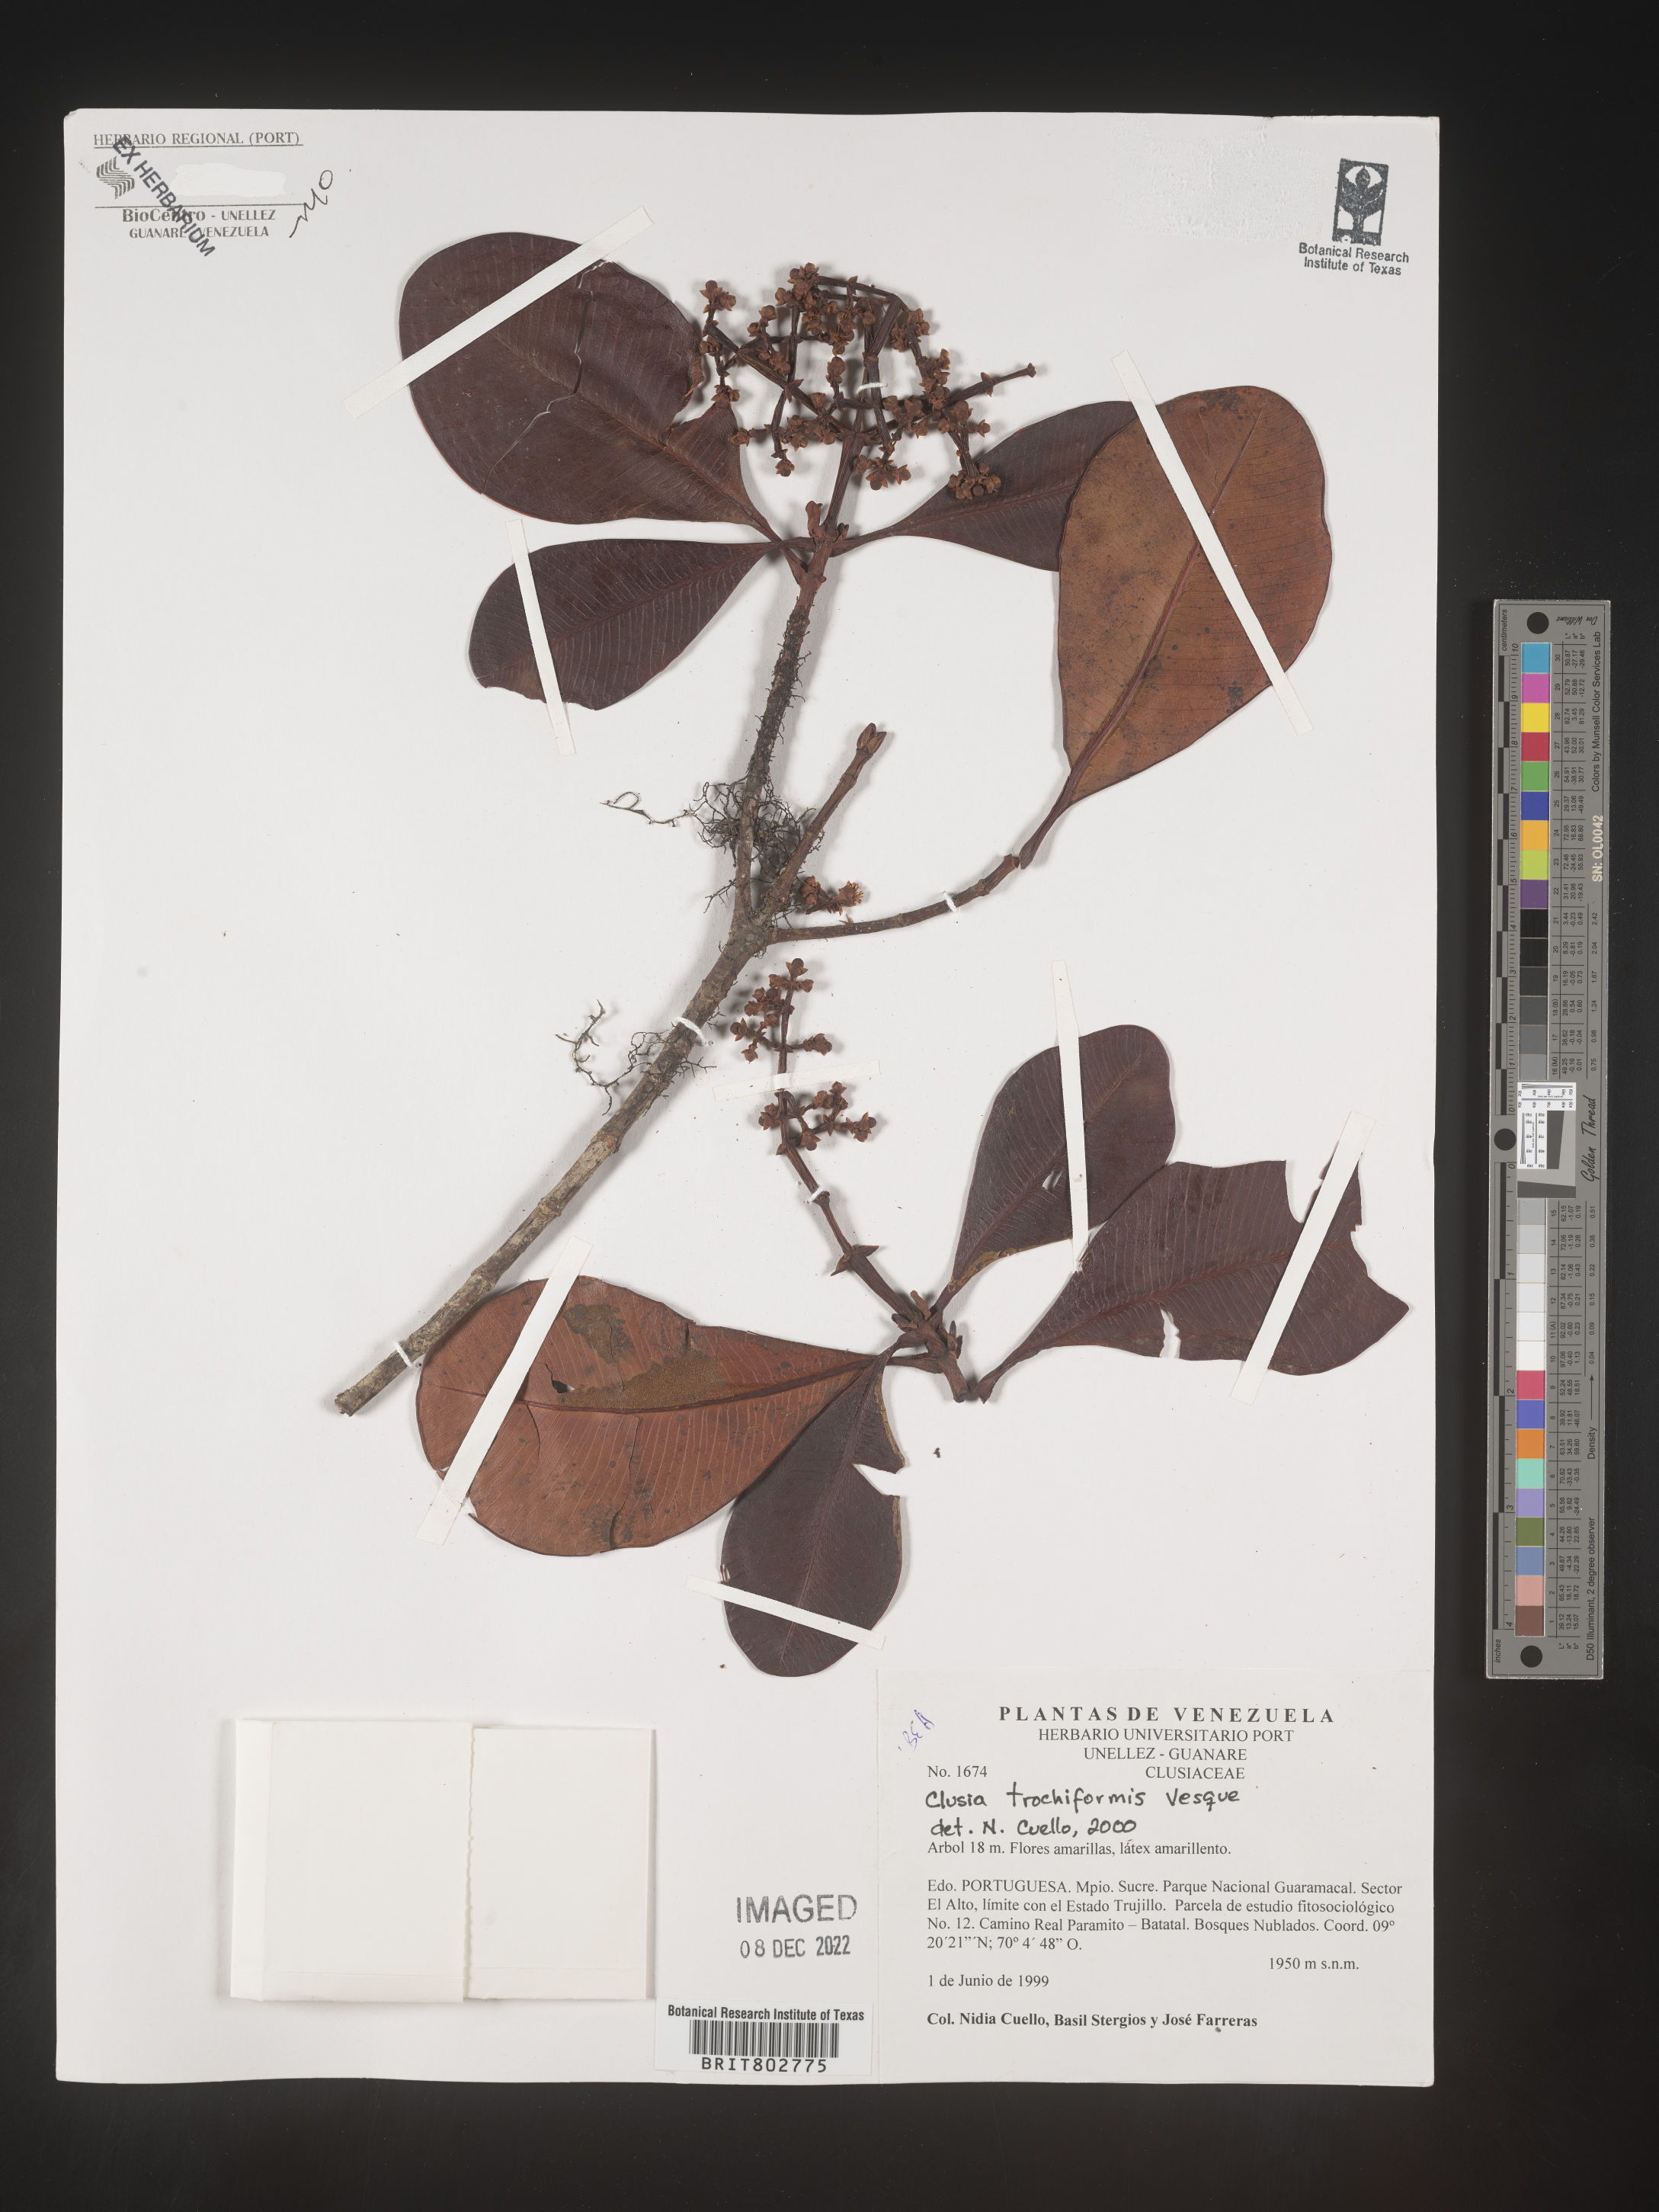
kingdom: Plantae
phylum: Tracheophyta
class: Magnoliopsida
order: Malpighiales
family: Clusiaceae
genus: Clusia
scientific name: Clusia trochiformis
